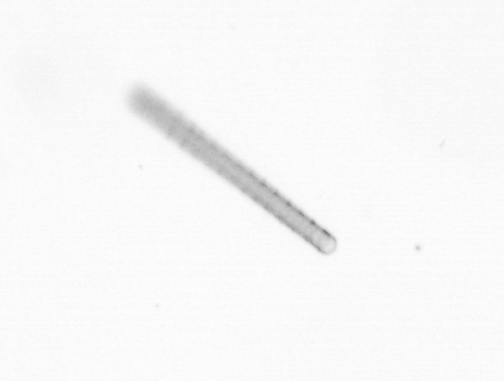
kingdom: Chromista
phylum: Ochrophyta
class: Bacillariophyceae
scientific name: Bacillariophyceae
